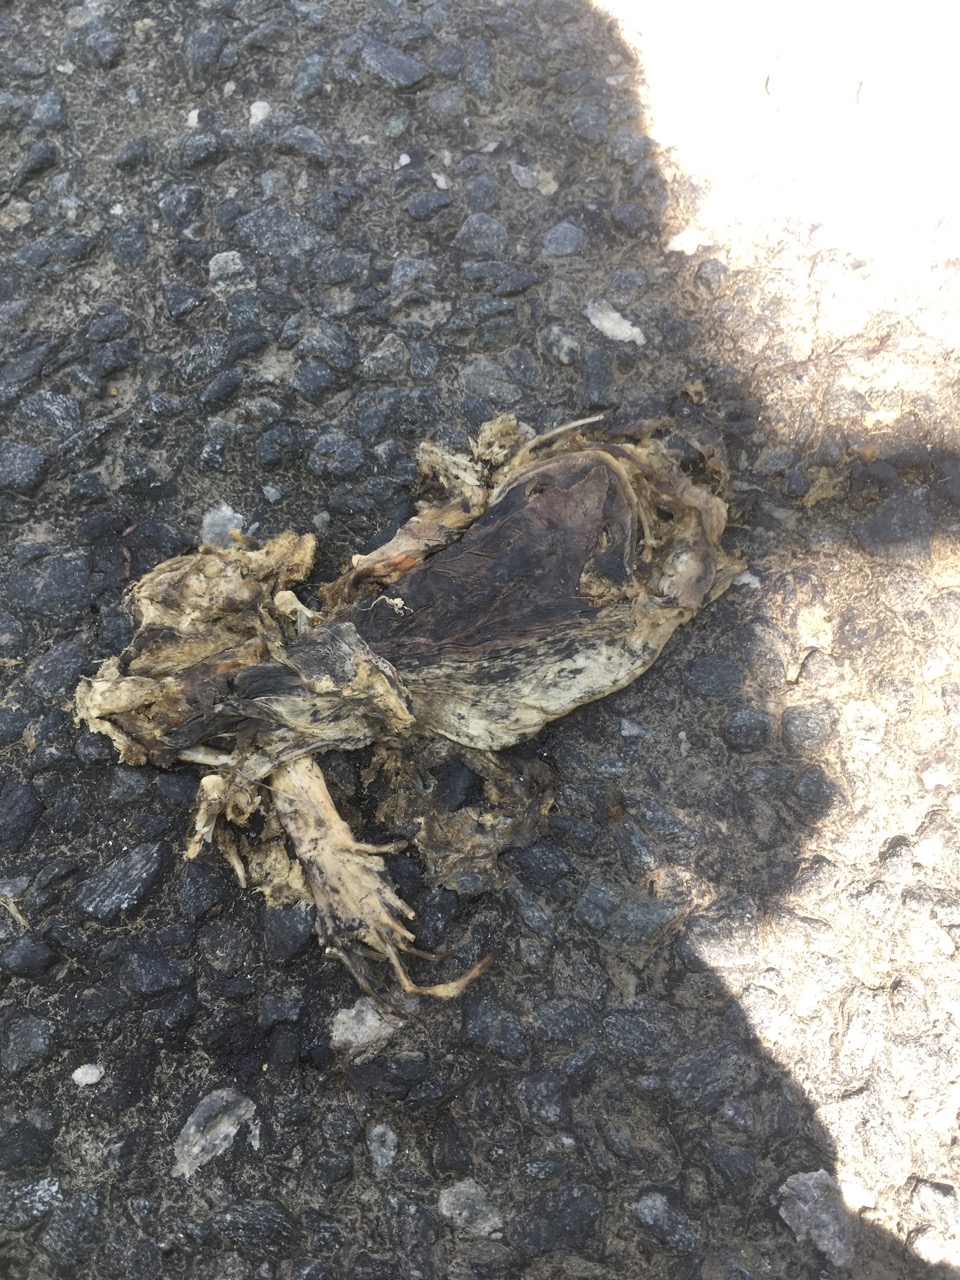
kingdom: Animalia
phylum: Chordata
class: Amphibia
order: Anura
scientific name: Anura
